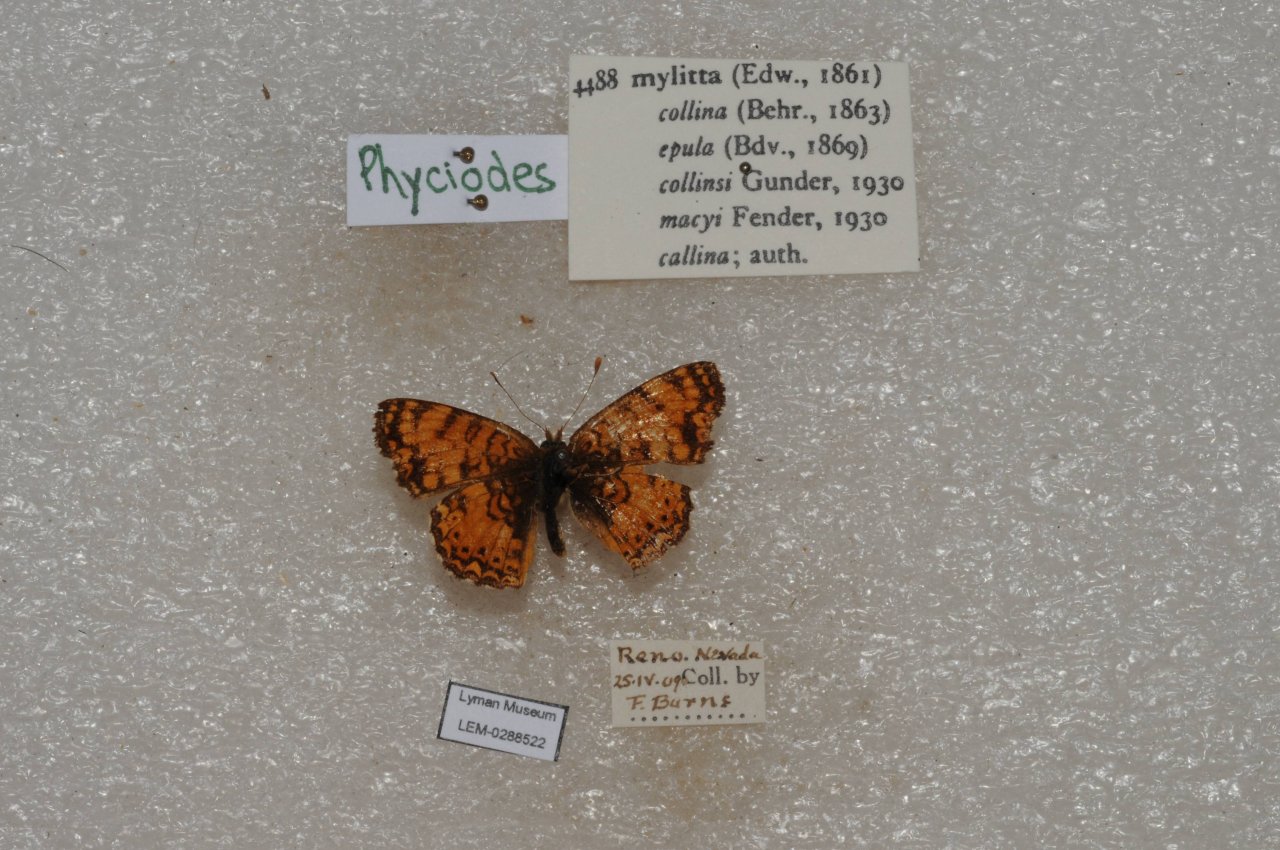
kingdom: Animalia
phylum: Arthropoda
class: Insecta
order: Lepidoptera
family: Nymphalidae
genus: Eresia
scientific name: Eresia aveyrona
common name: Mylitta Crescent
